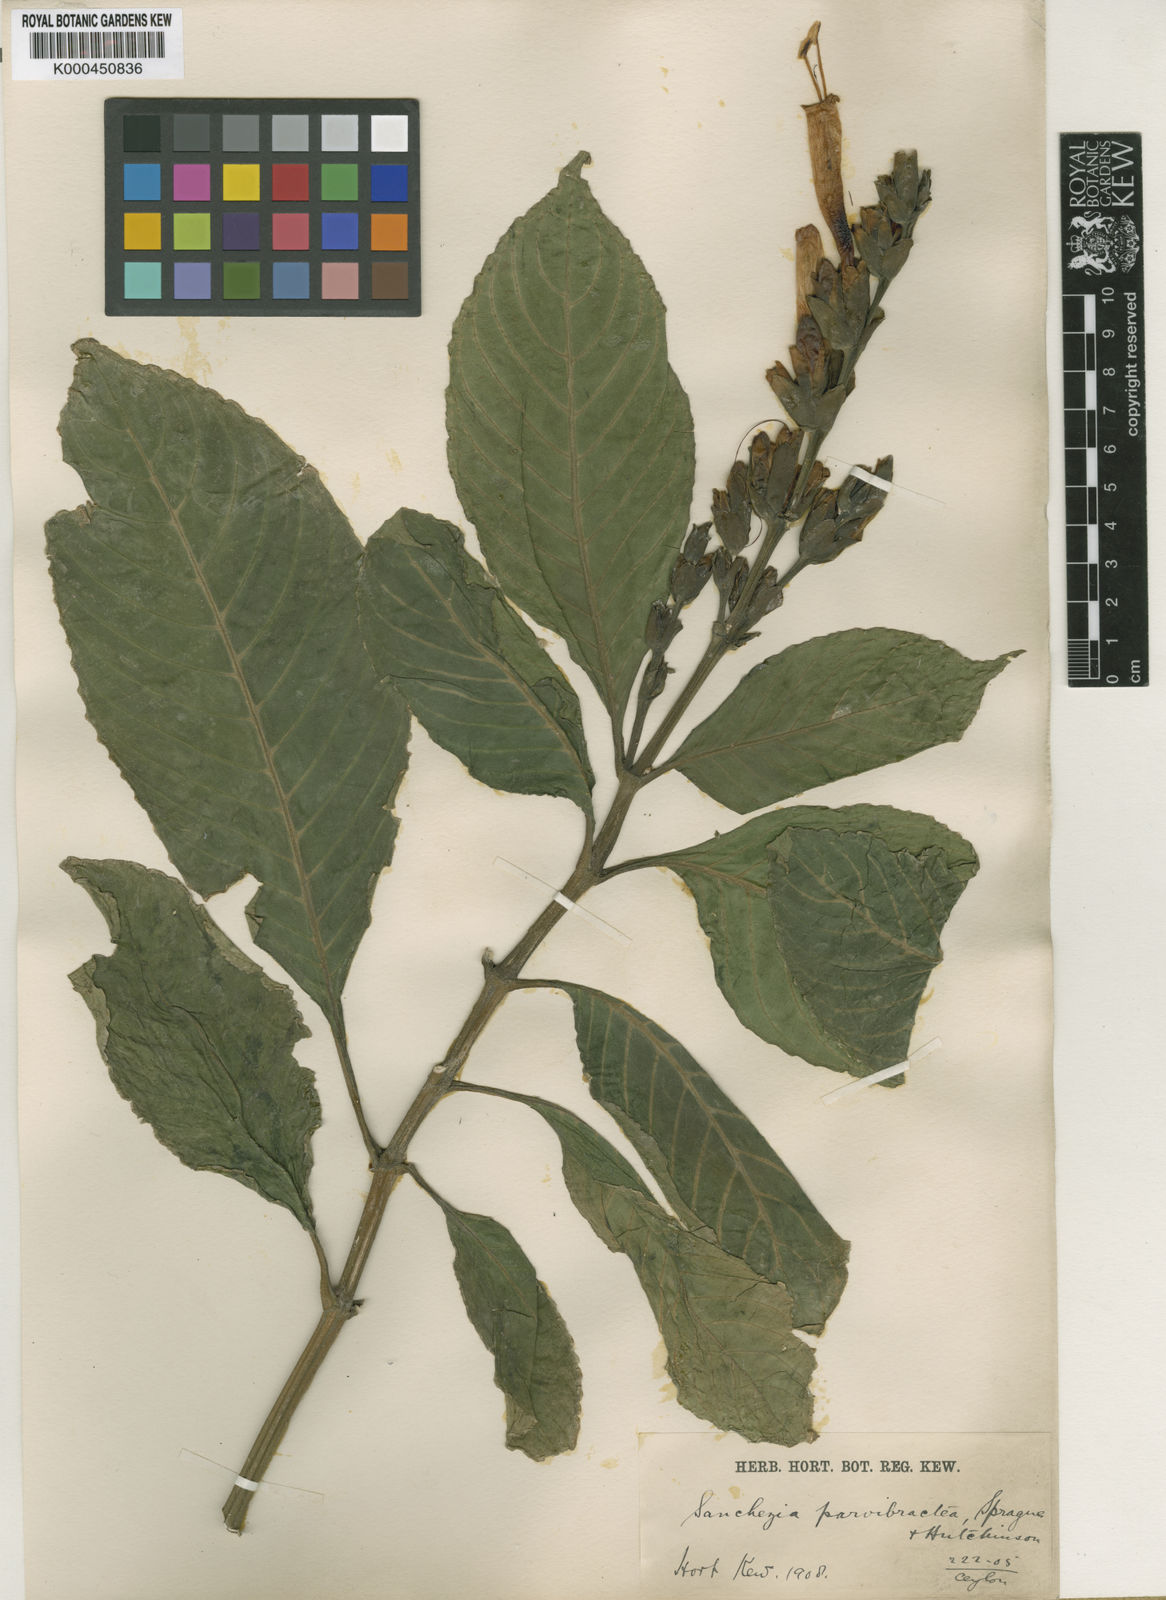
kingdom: Plantae
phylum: Tracheophyta
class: Magnoliopsida
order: Lamiales
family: Acanthaceae
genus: Sanchezia
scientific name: Sanchezia parvibracteata
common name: Sanchezia
